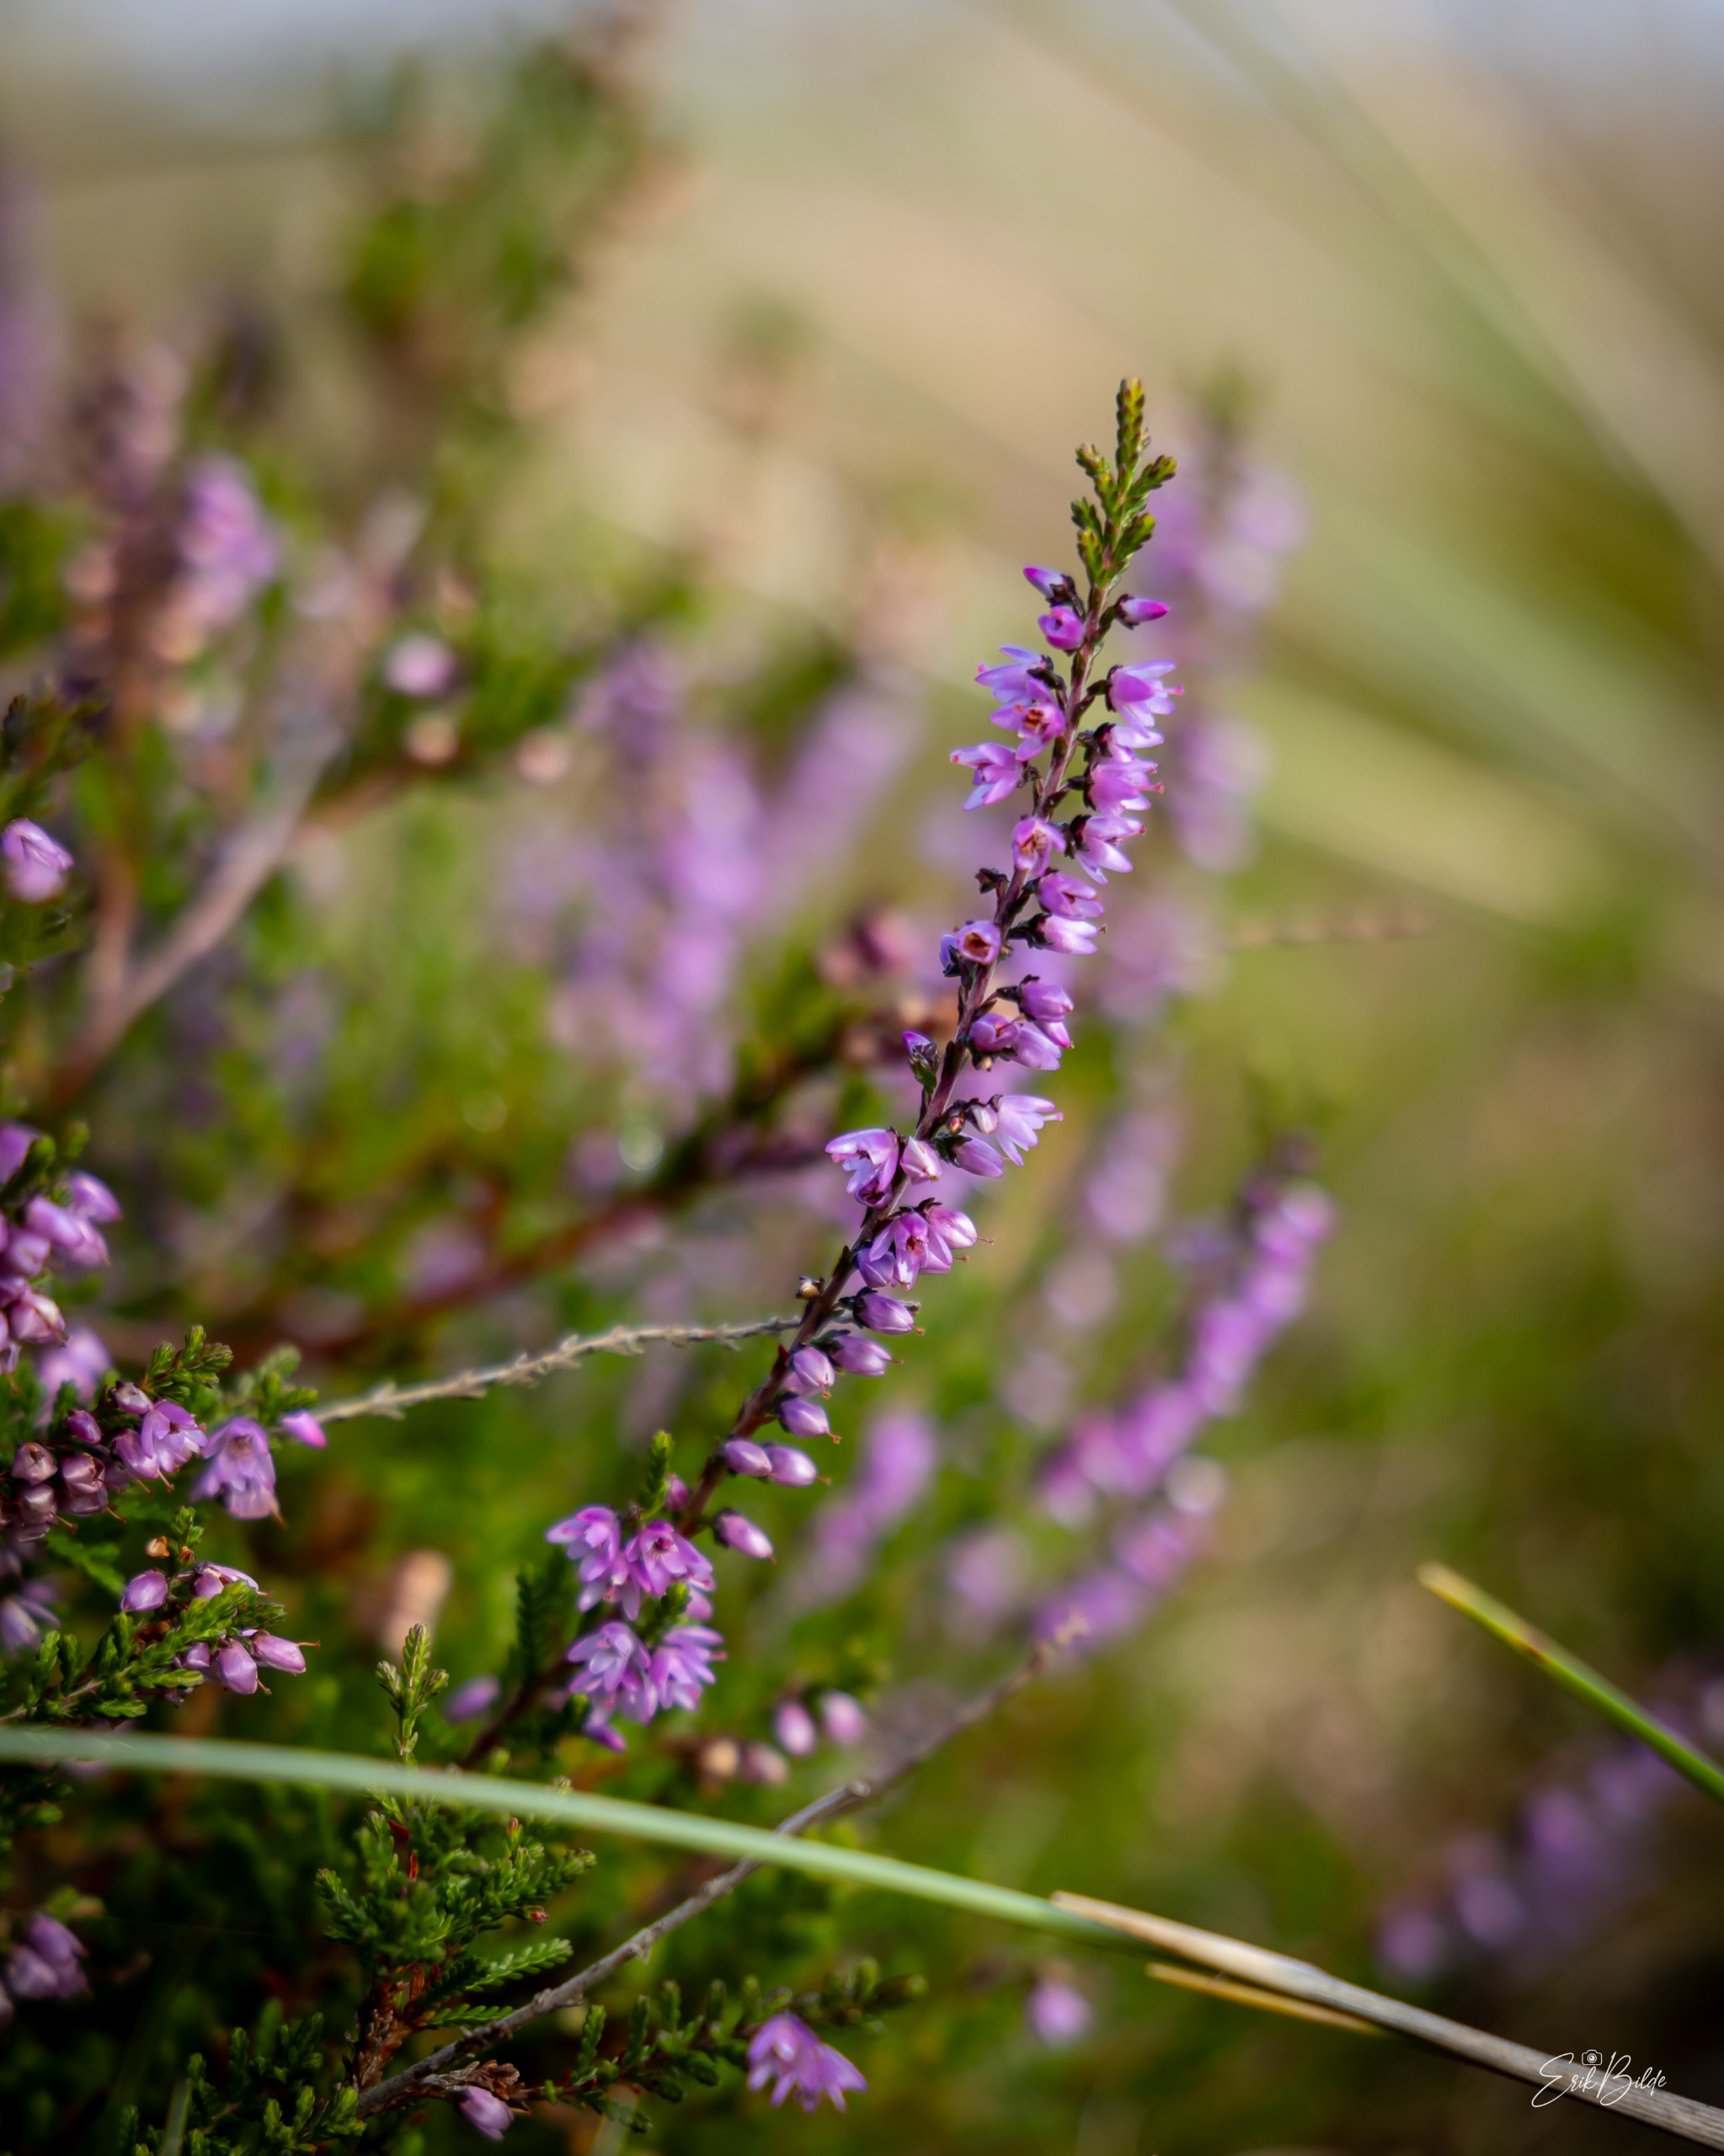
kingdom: Plantae
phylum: Tracheophyta
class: Magnoliopsida
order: Ericales
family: Ericaceae
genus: Calluna
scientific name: Calluna vulgaris
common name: Hedelyng
